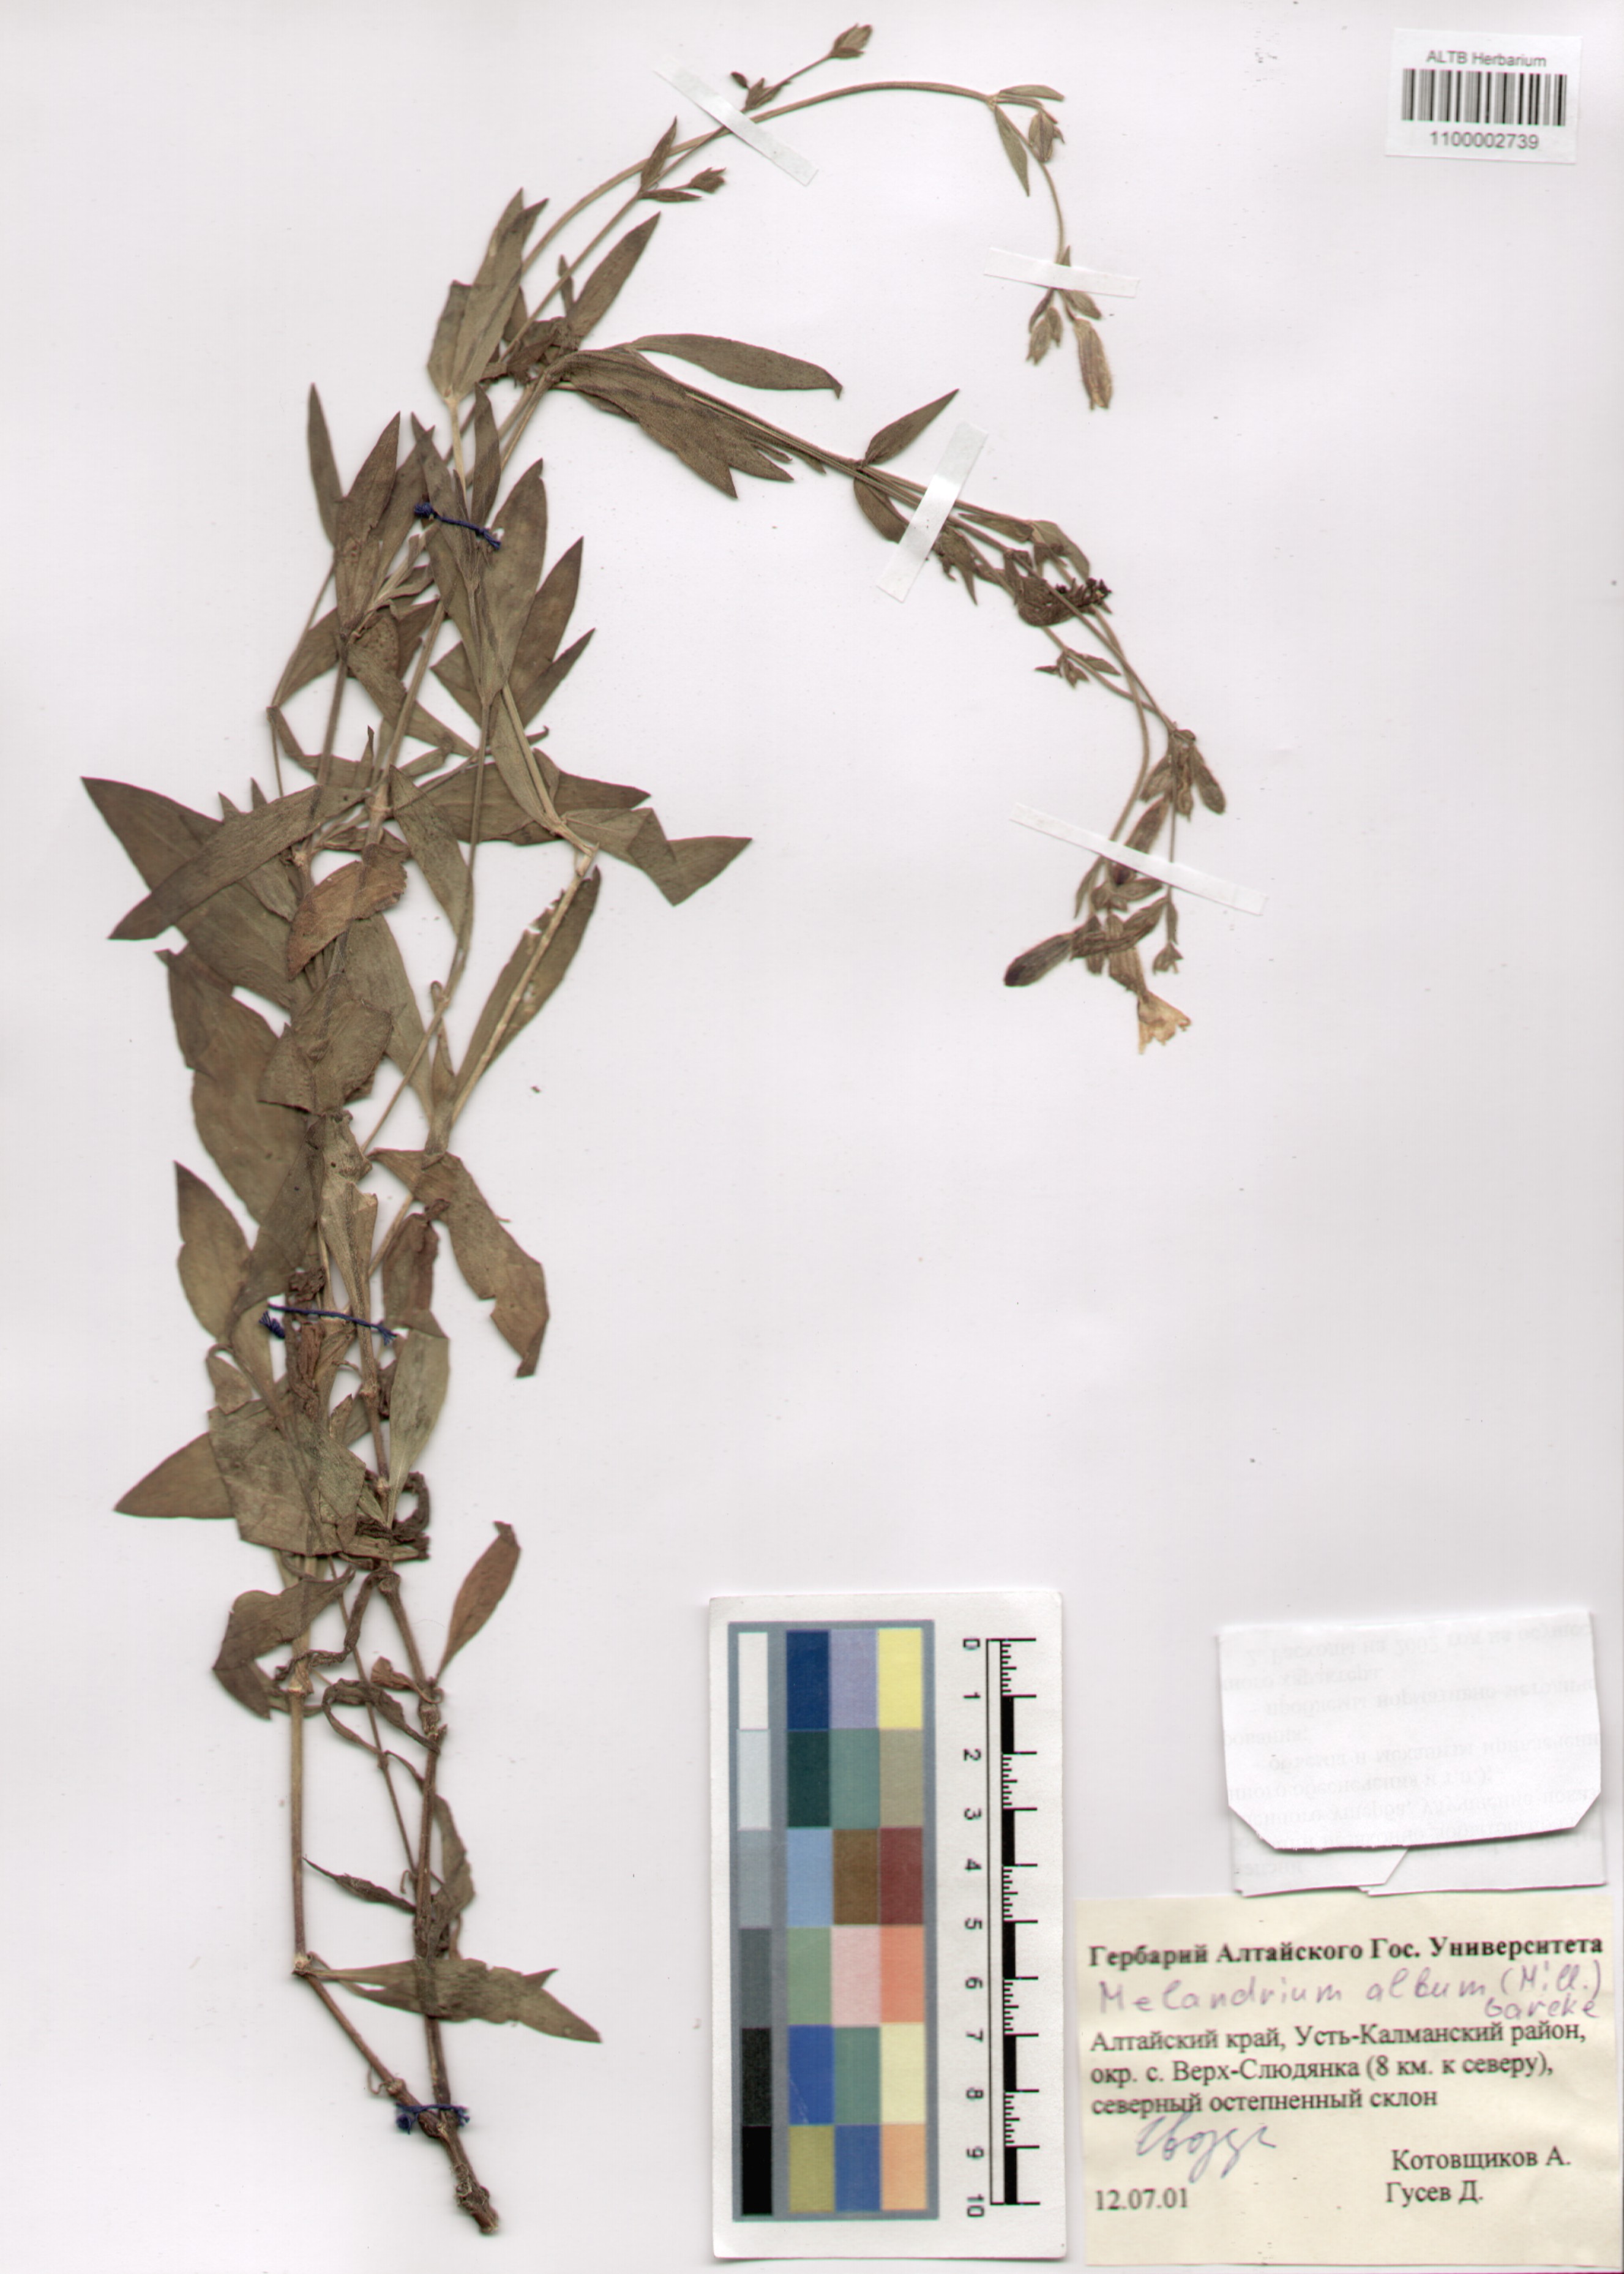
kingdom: Plantae
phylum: Tracheophyta
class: Magnoliopsida
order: Caryophyllales
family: Caryophyllaceae
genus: Silene
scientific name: Silene latifolia
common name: White campion
